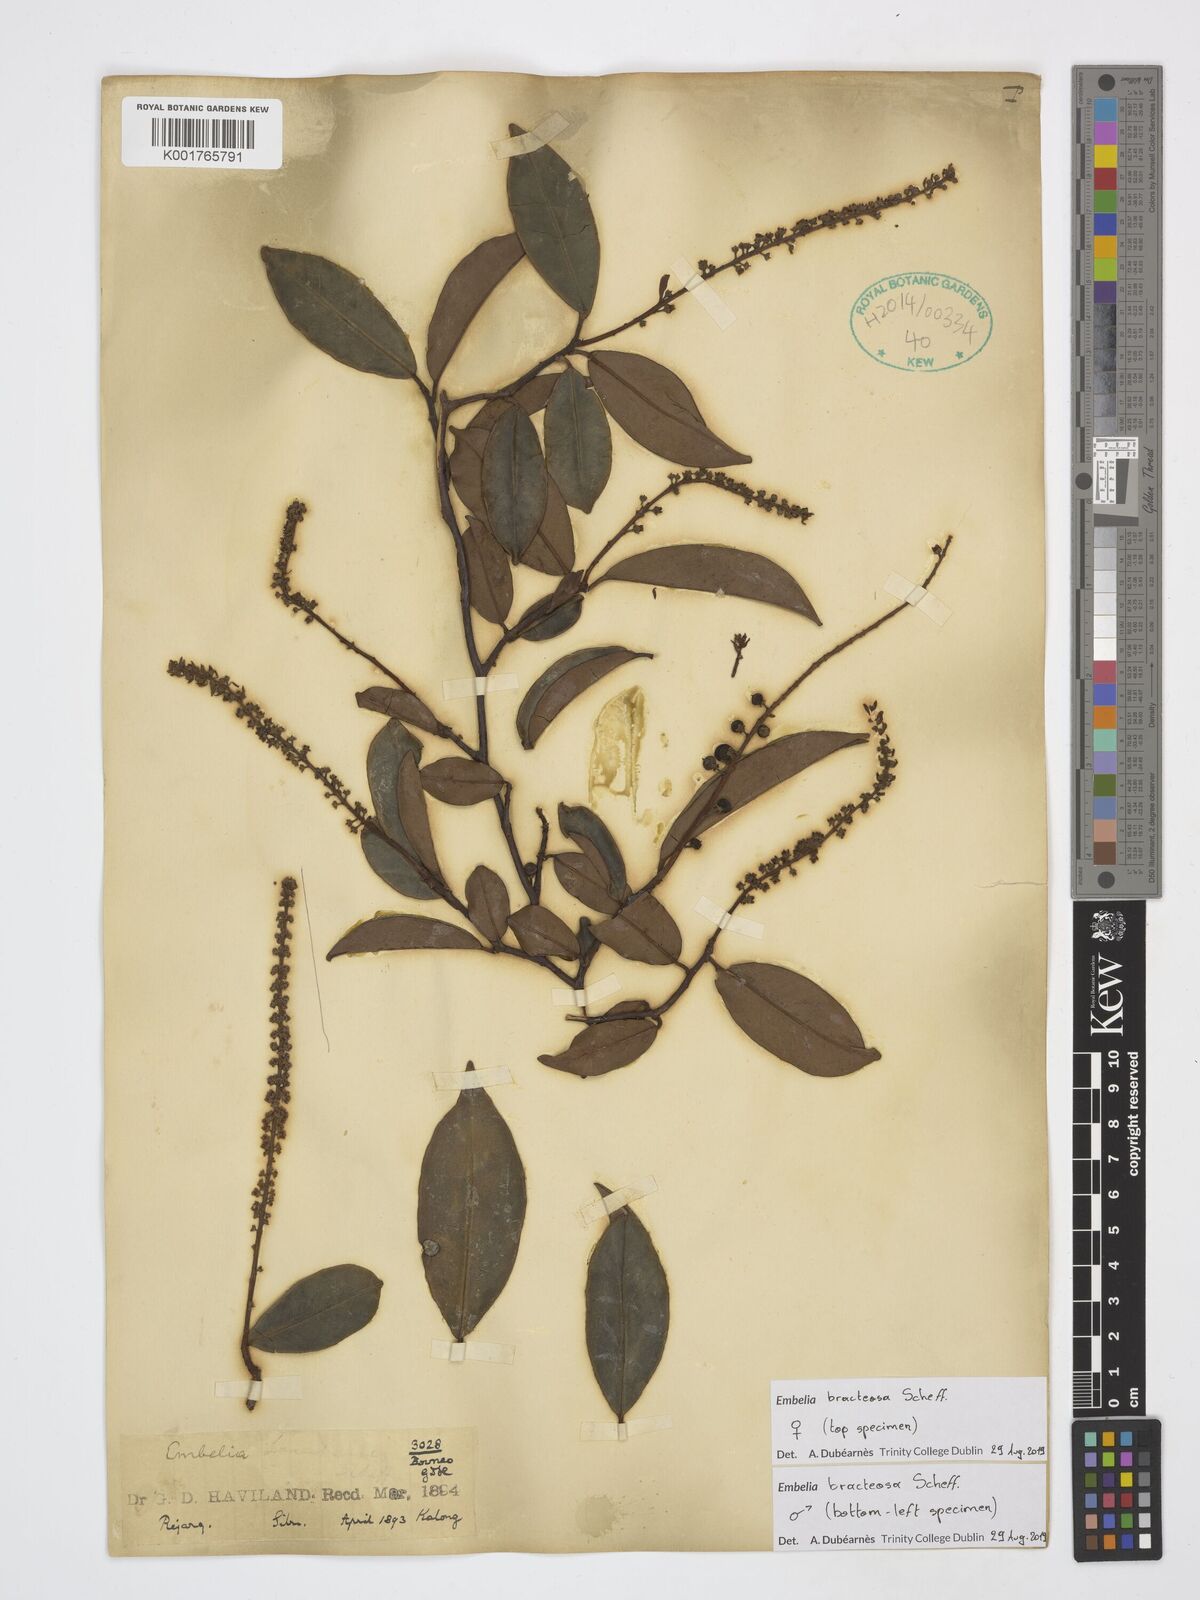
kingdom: Plantae
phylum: Tracheophyta
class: Magnoliopsida
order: Ericales
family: Primulaceae
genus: Grenacheria
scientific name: Grenacheria bracteosa
